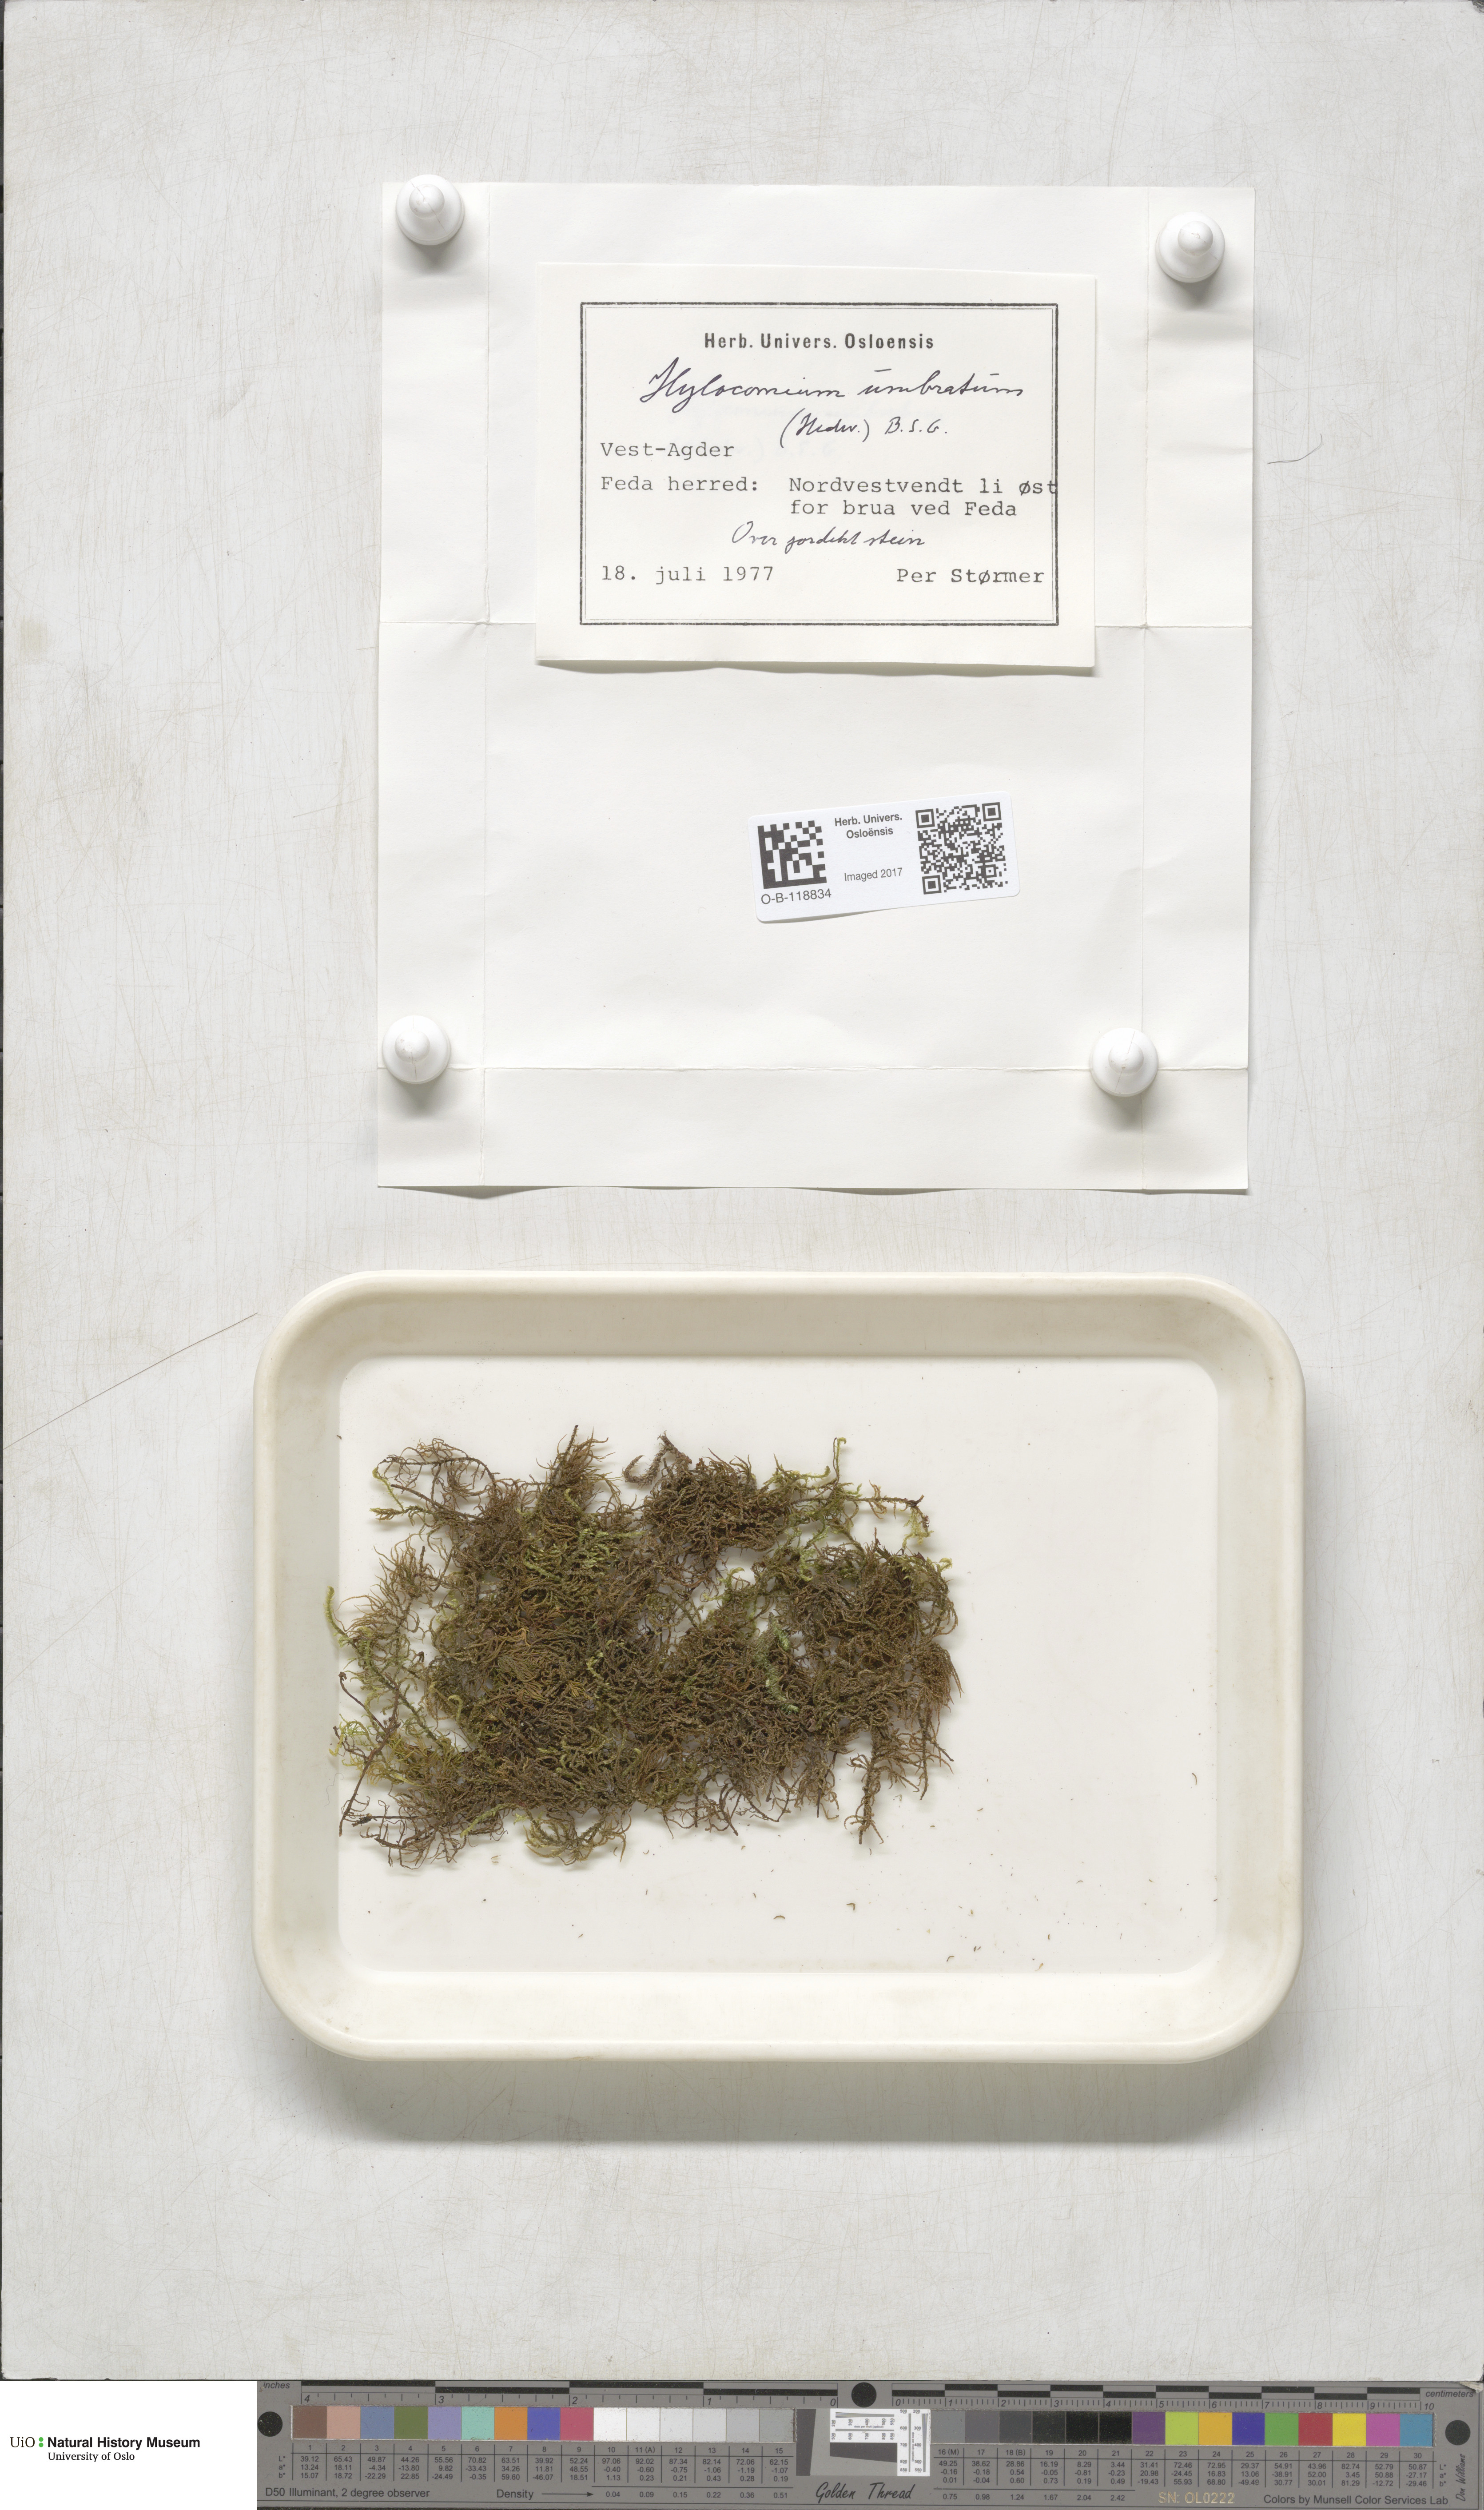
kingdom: Plantae
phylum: Bryophyta
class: Bryopsida
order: Hypnales
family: Hylocomiaceae
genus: Hylocomiastrum
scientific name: Hylocomiastrum umbratum
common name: Shaded woods moss
